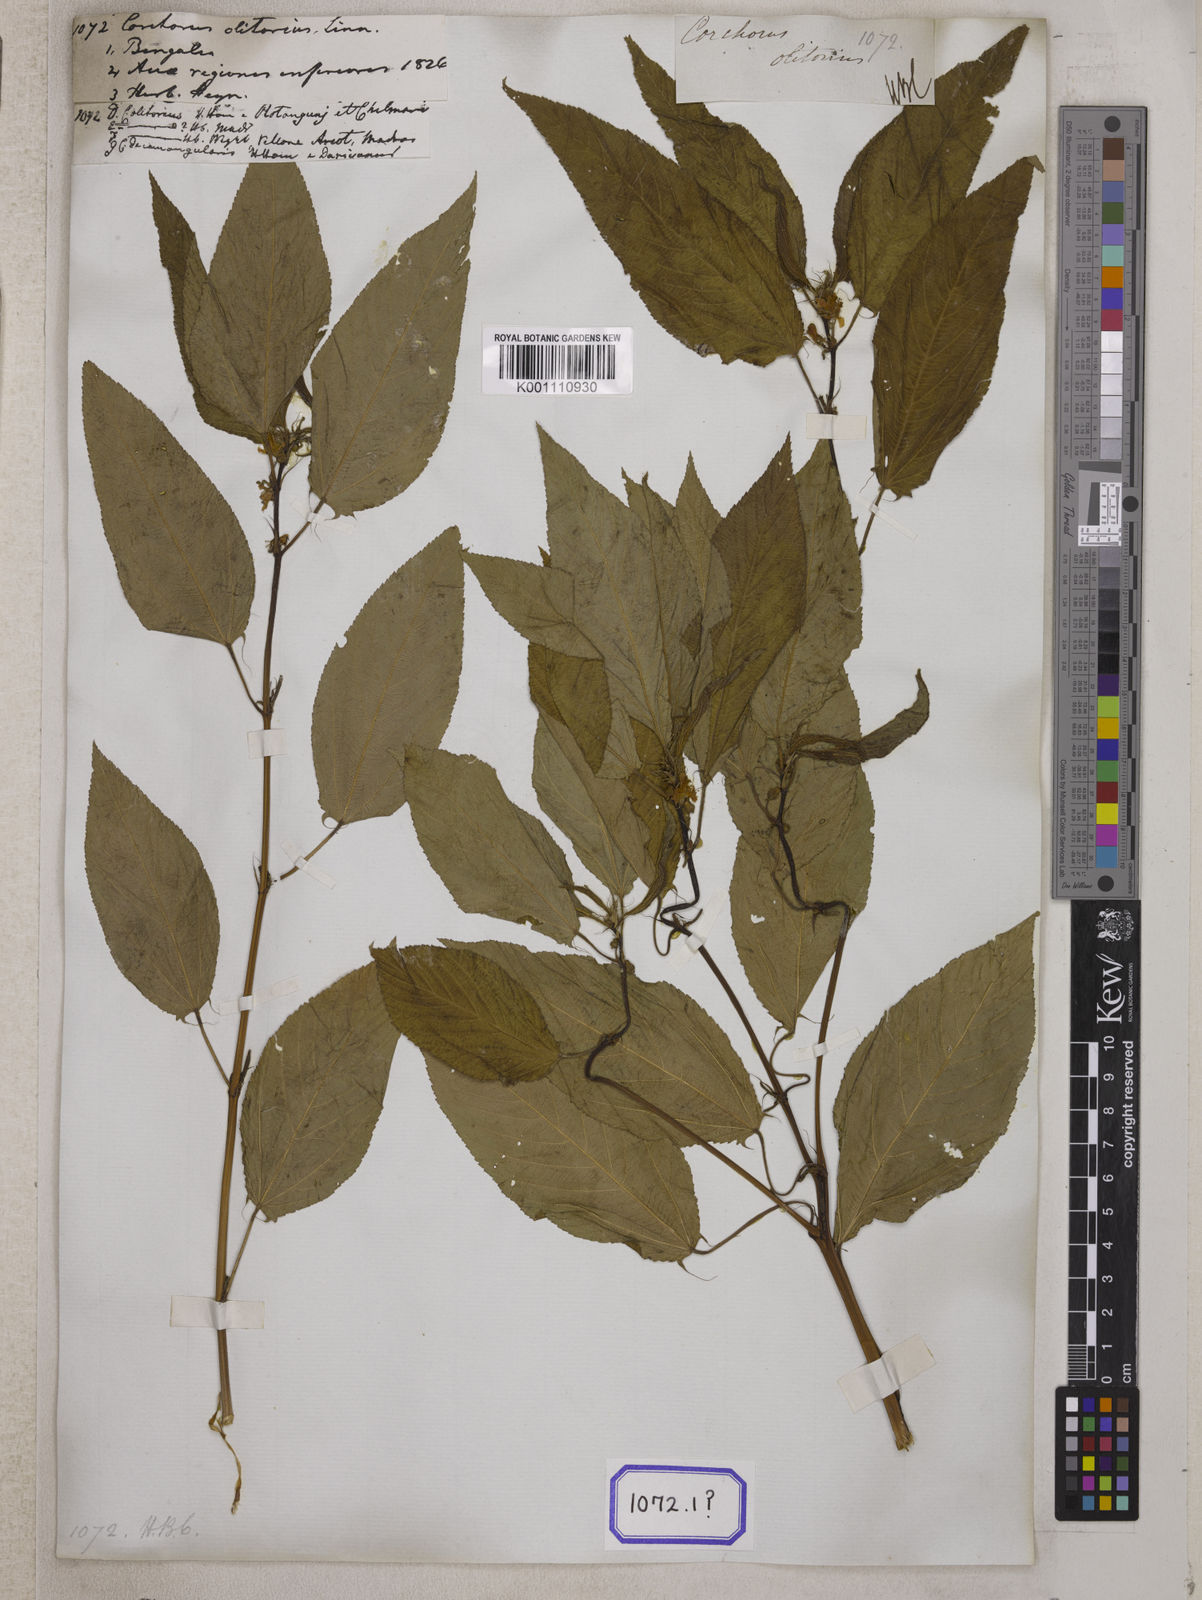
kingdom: Plantae
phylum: Tracheophyta
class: Magnoliopsida
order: Malvales
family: Malvaceae
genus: Corchorus
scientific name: Corchorus olitorius
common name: Tossa jute
